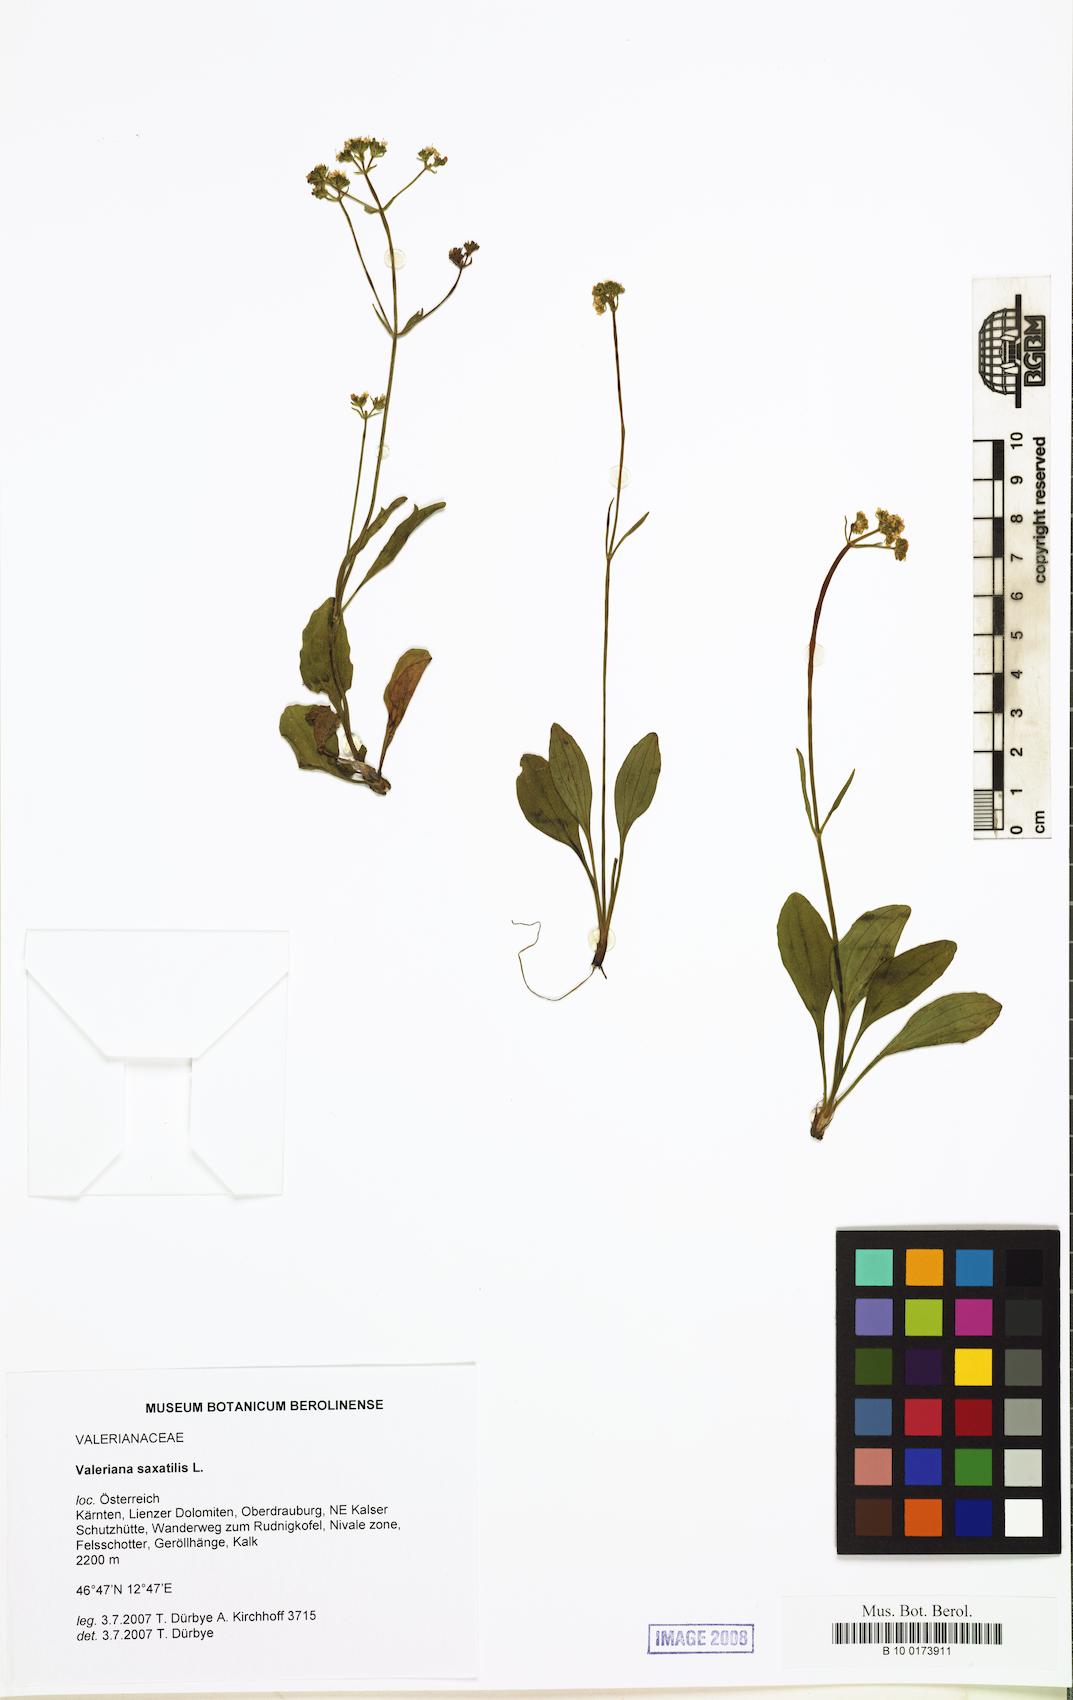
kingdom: Plantae
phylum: Tracheophyta
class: Magnoliopsida
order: Dipsacales
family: Caprifoliaceae
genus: Valeriana
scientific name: Valeriana saxatilis
